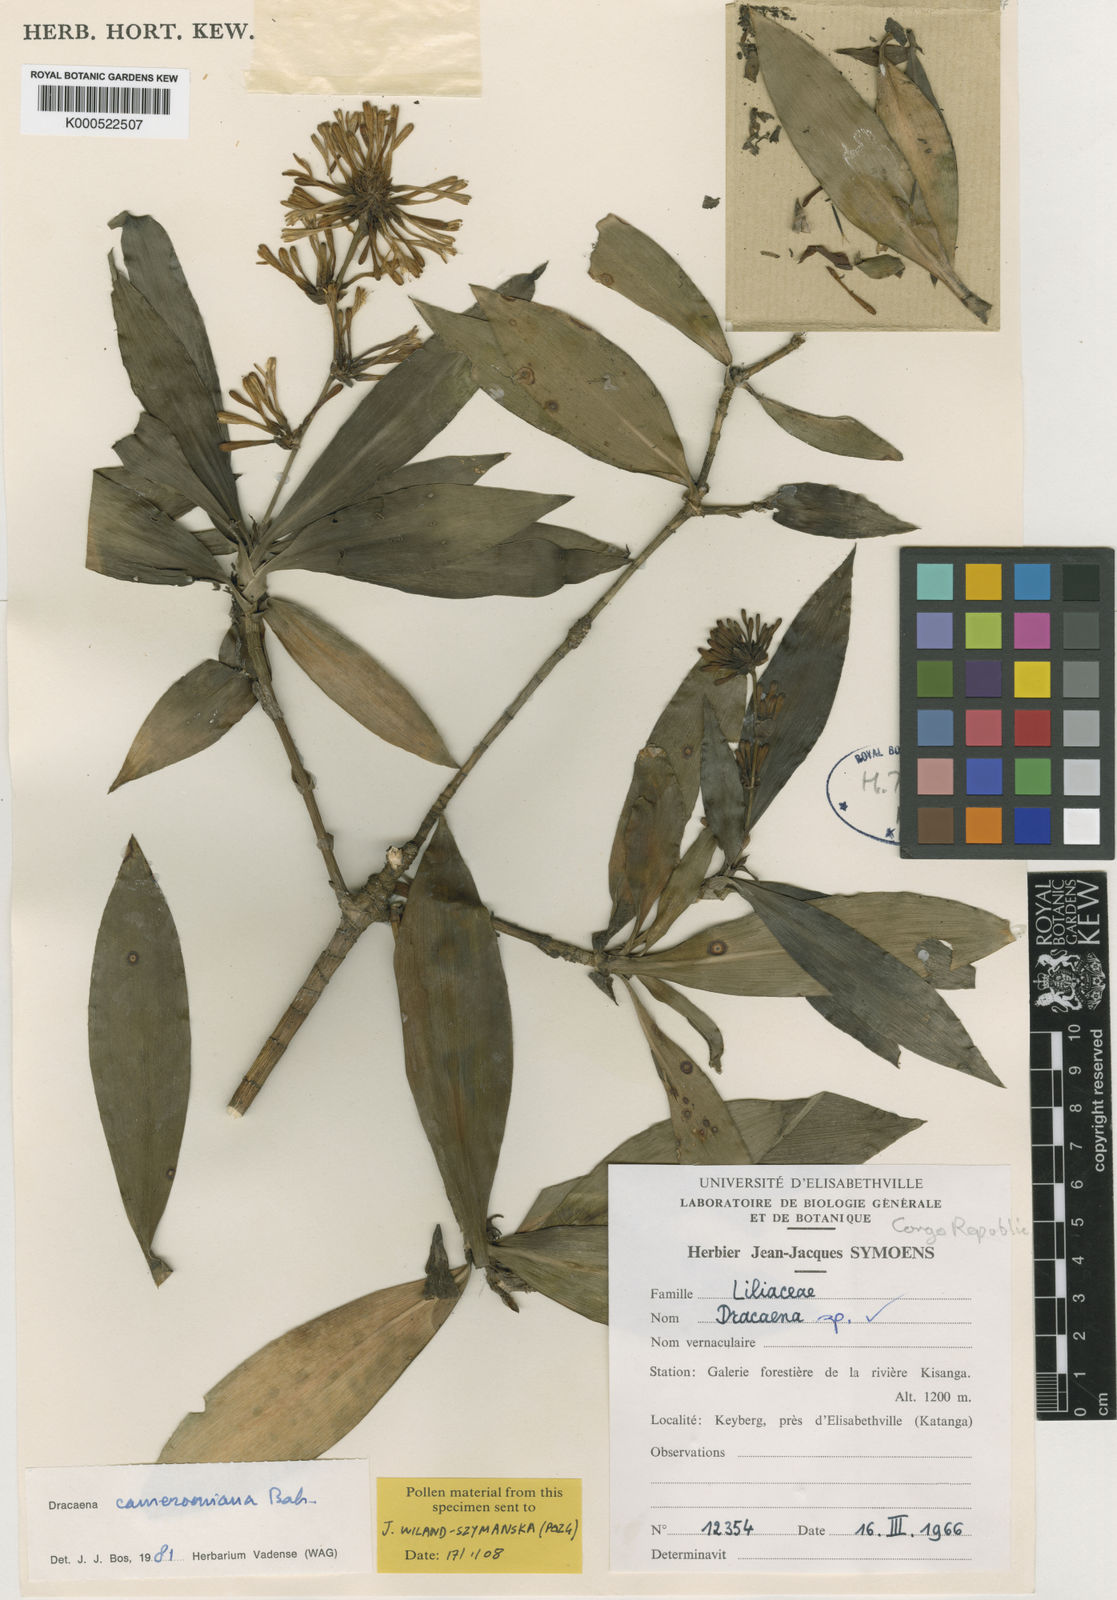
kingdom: Plantae
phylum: Tracheophyta
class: Liliopsida
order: Asparagales
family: Asparagaceae
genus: Dracaena
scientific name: Dracaena camerooniana
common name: Dragon tree
